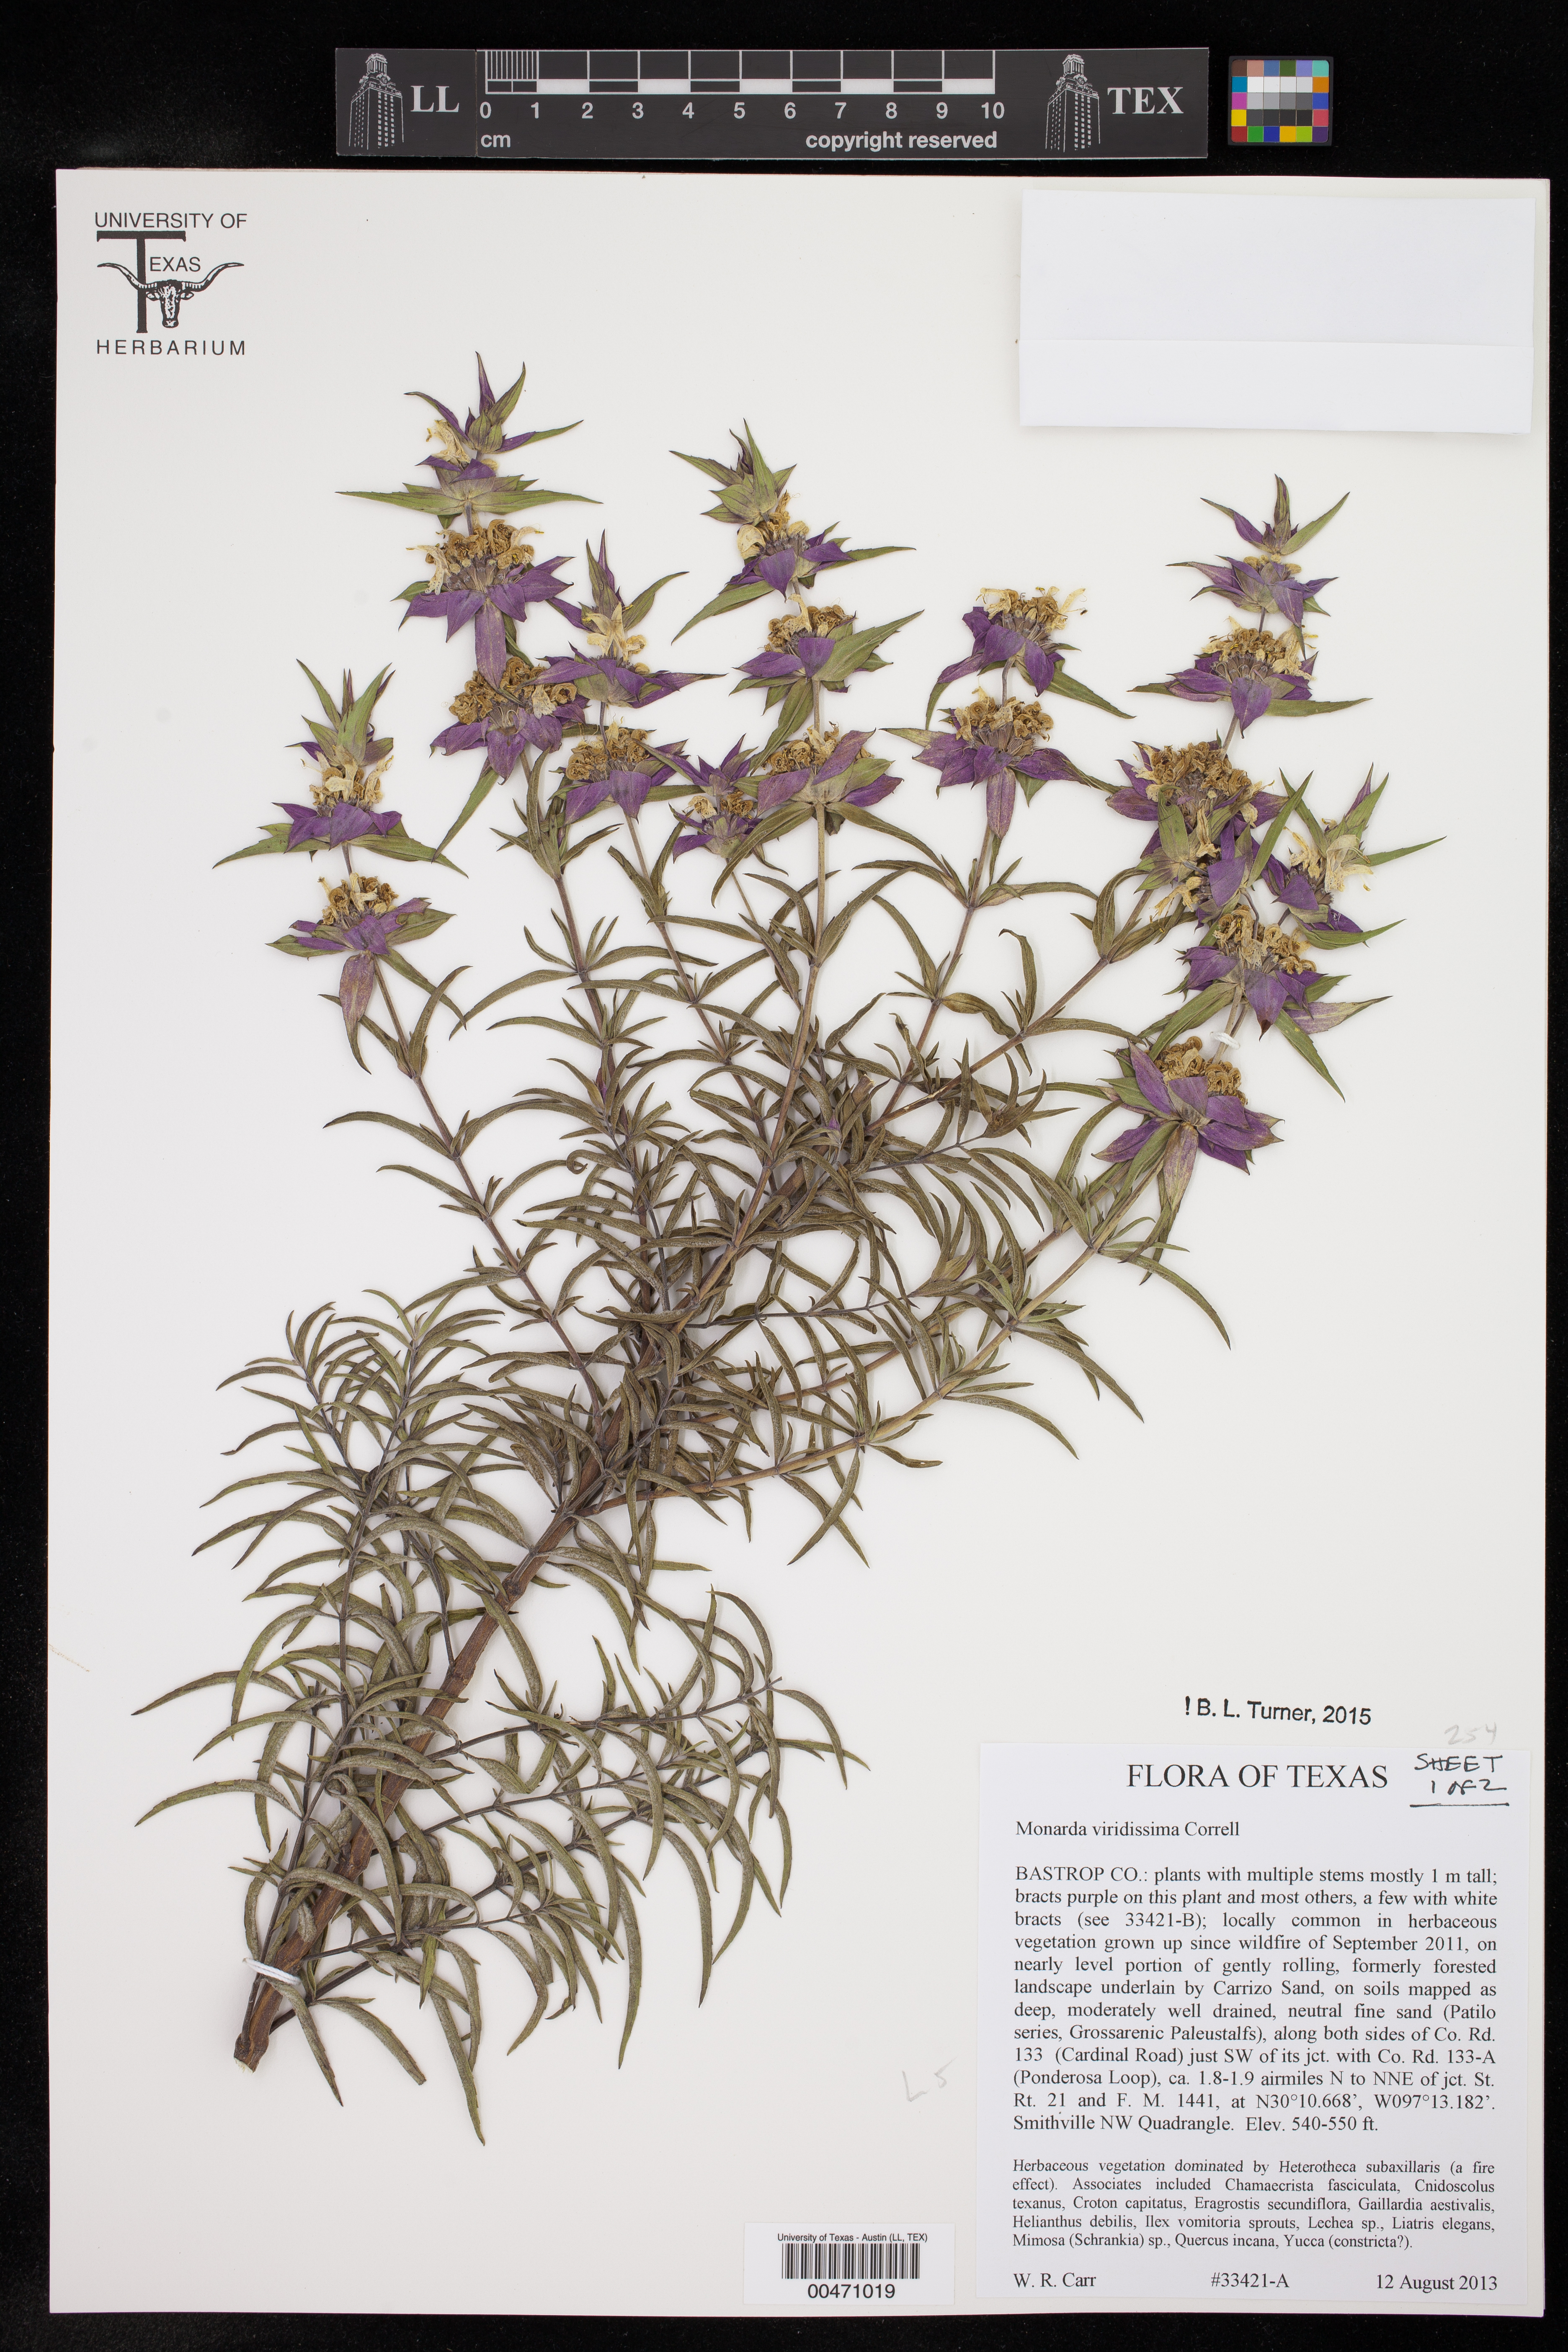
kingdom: Plantae
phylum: Tracheophyta
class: Magnoliopsida
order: Lamiales
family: Lamiaceae
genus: Monarda
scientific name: Monarda viridissima
